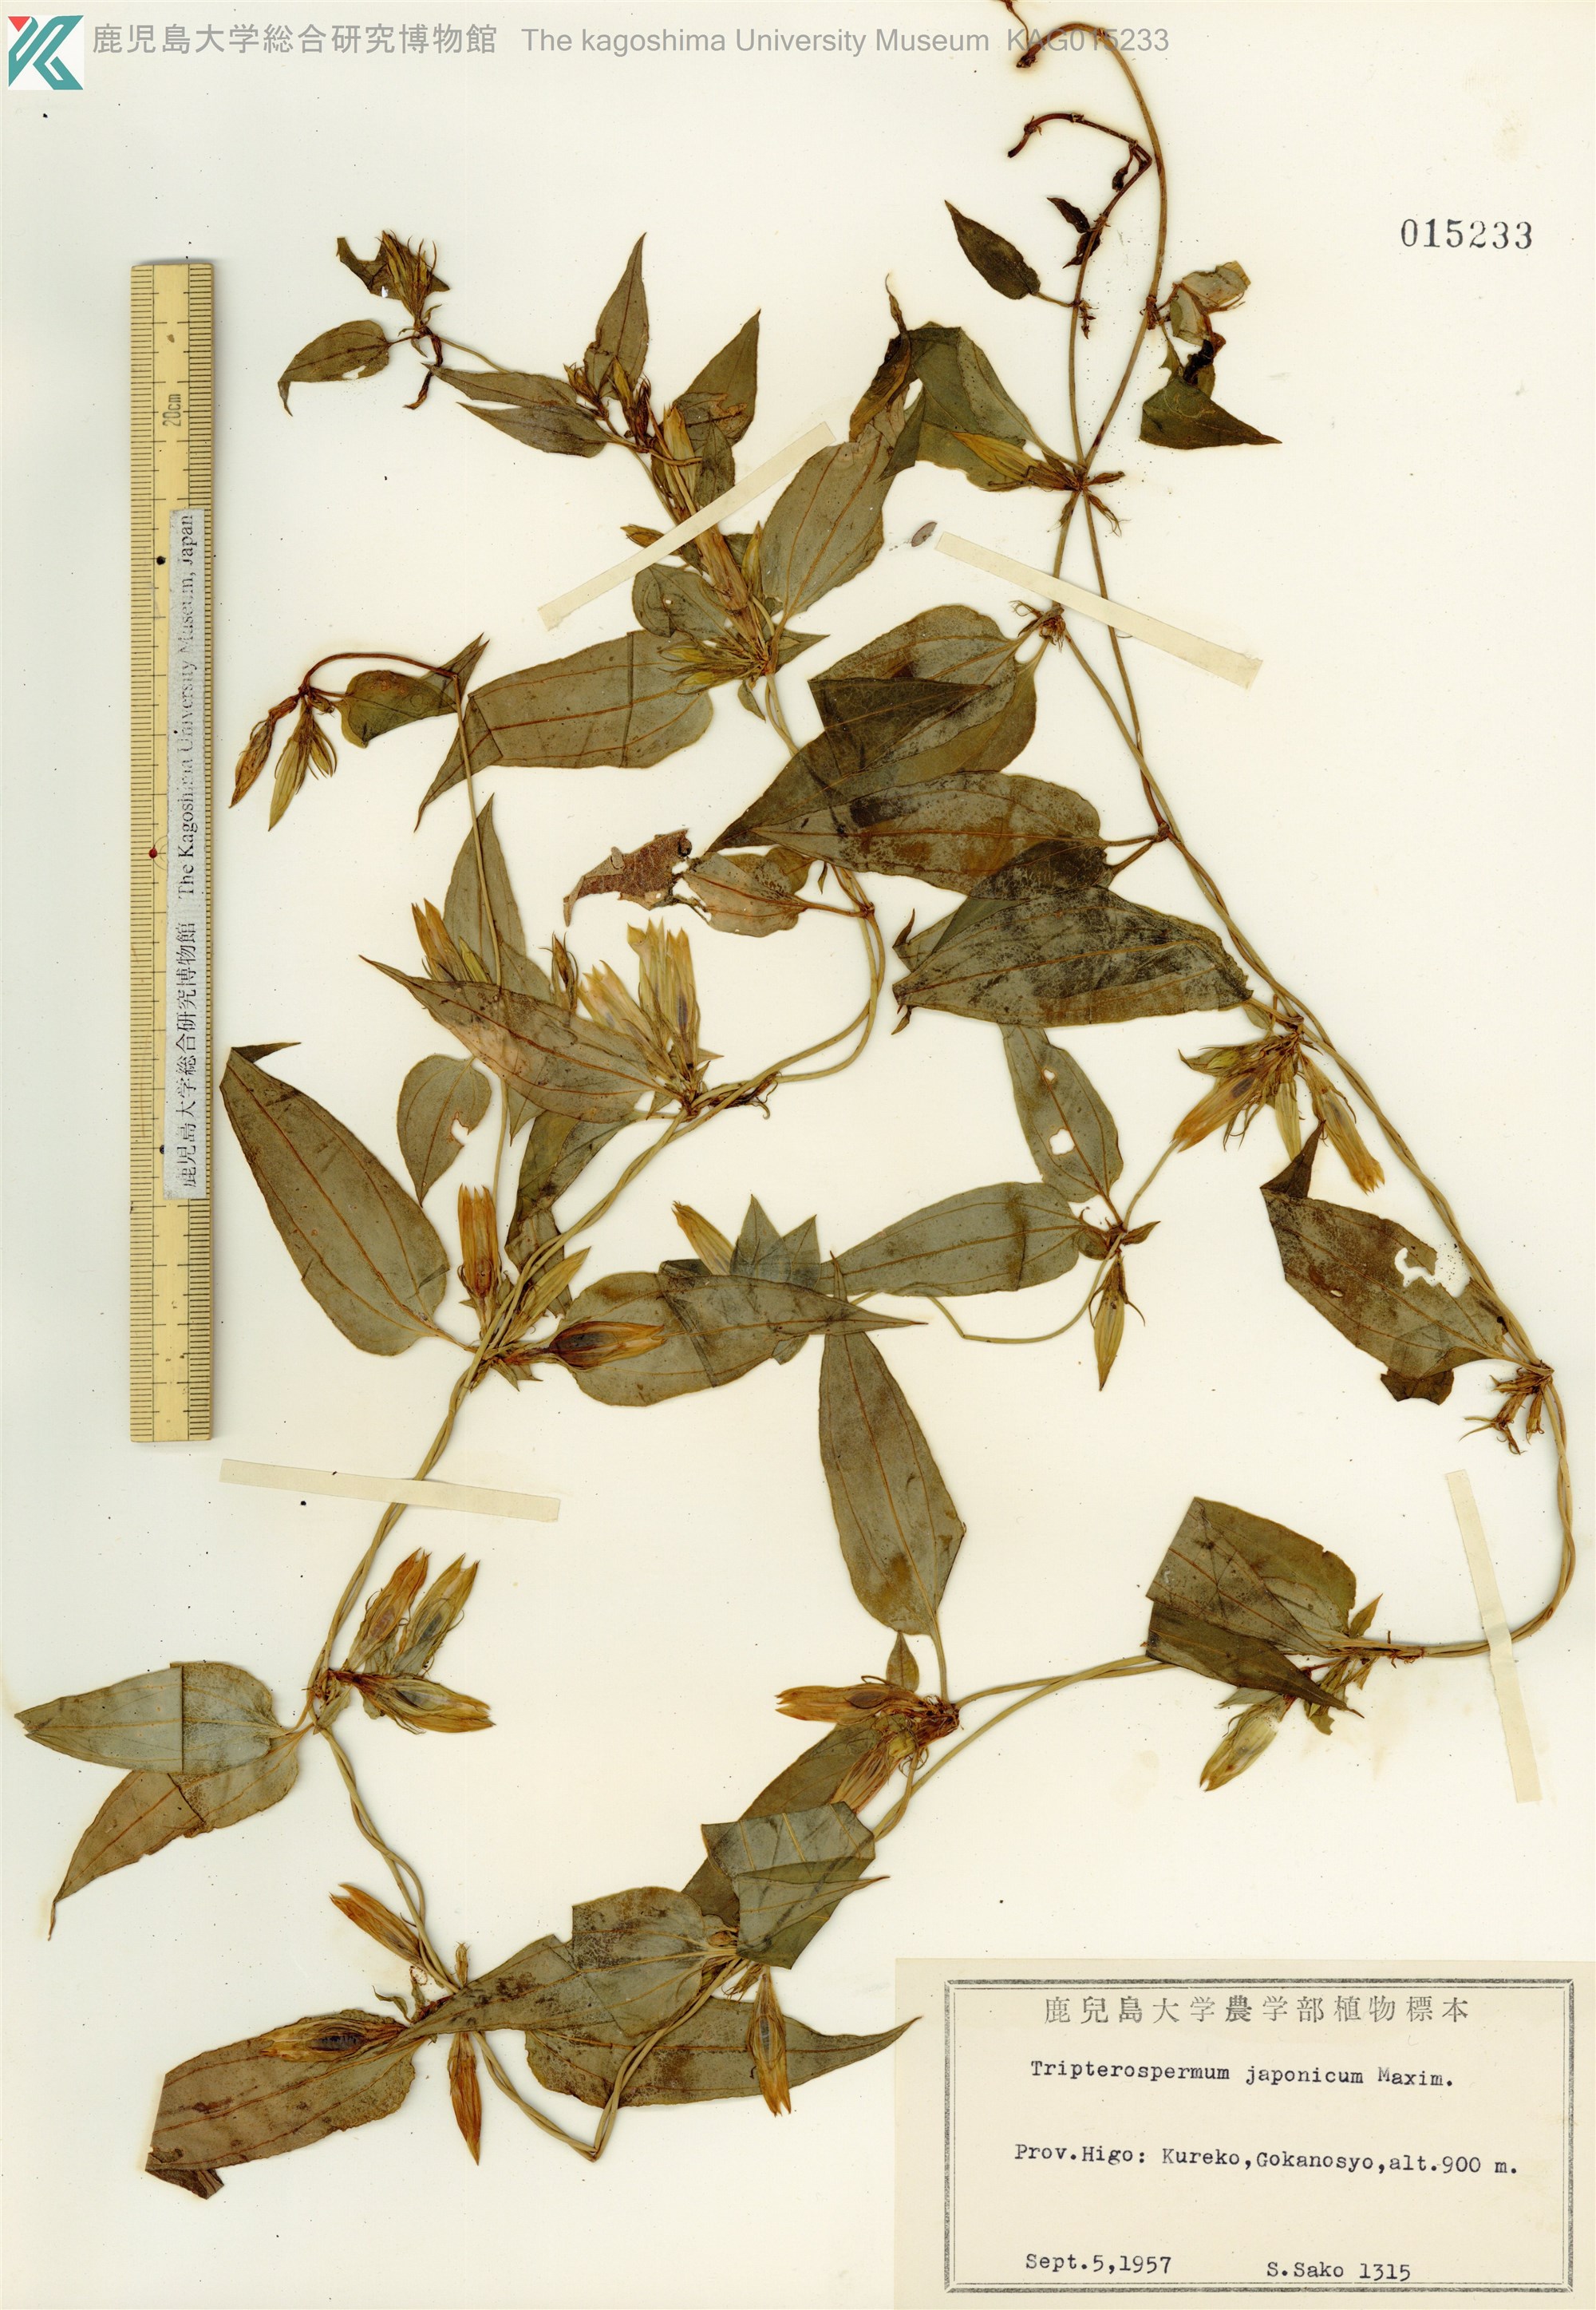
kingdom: Plantae
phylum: Tracheophyta
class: Magnoliopsida
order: Gentianales
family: Gentianaceae
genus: Tripterospermum
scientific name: Tripterospermum trinervium
